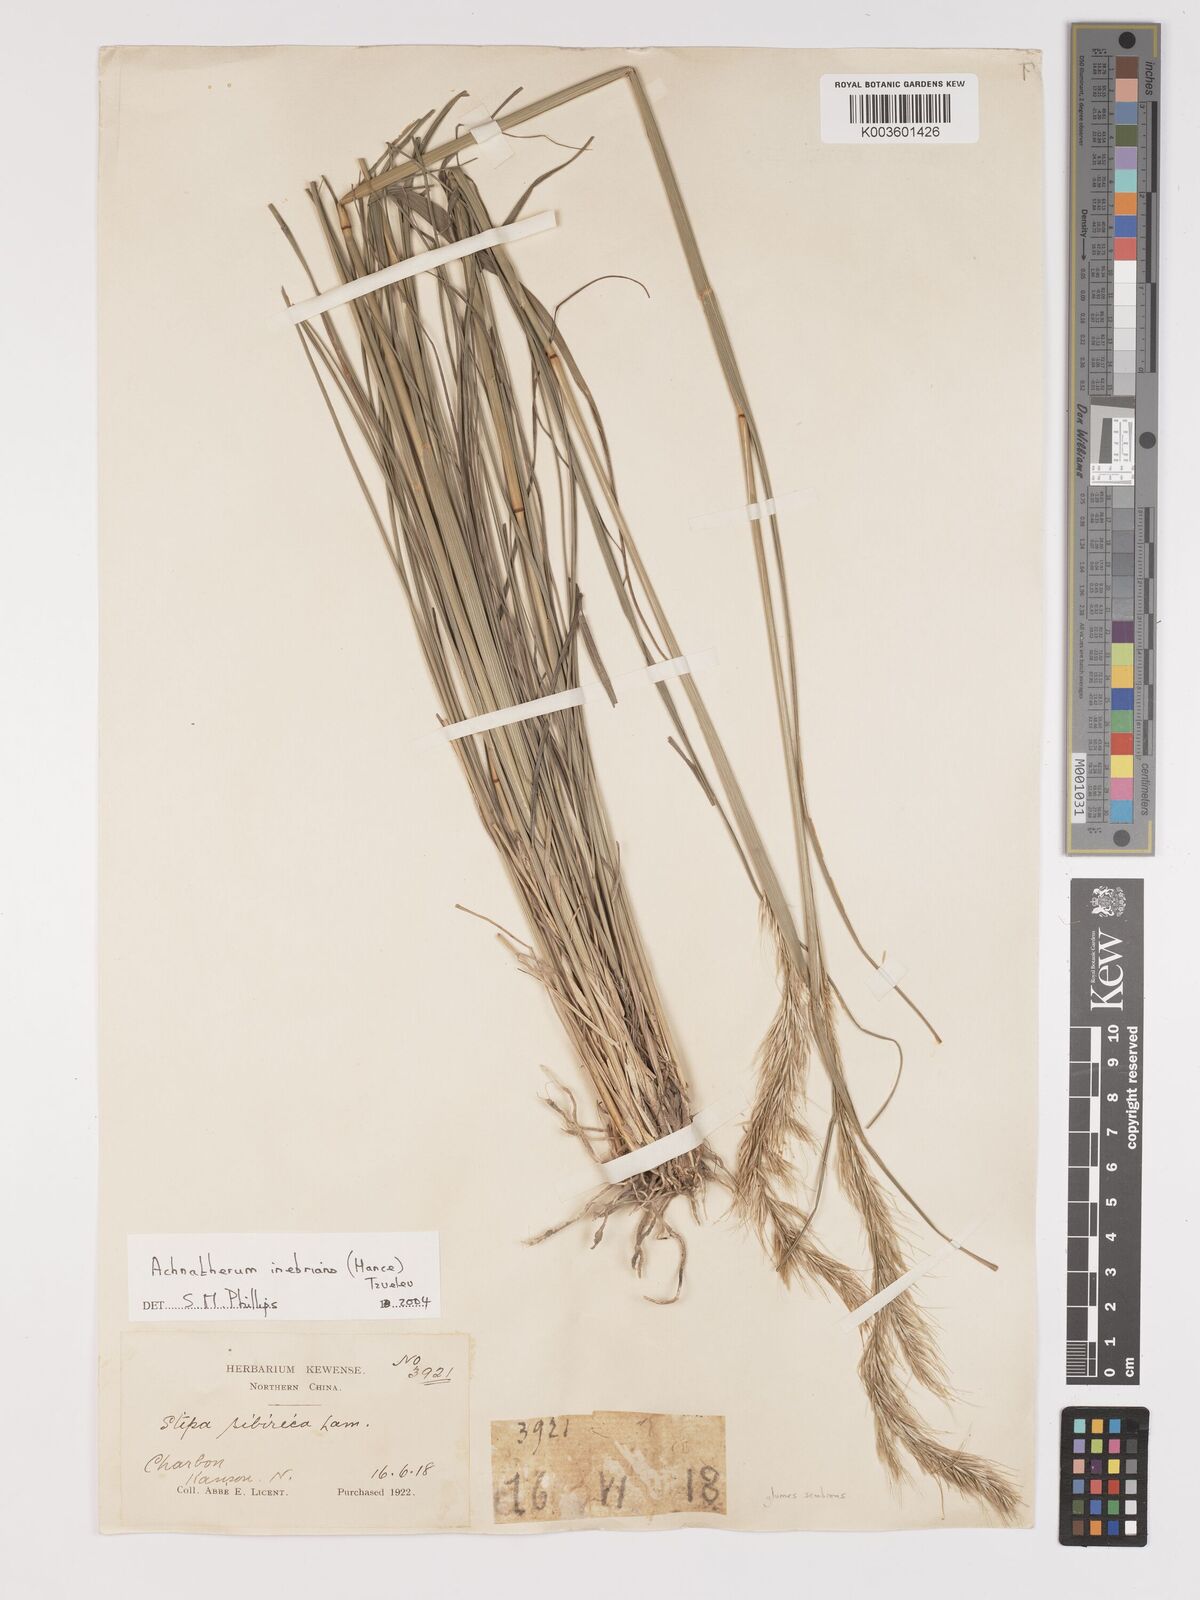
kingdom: Plantae
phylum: Tracheophyta
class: Liliopsida
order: Poales
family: Poaceae
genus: Achnatherum
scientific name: Achnatherum inebrians
